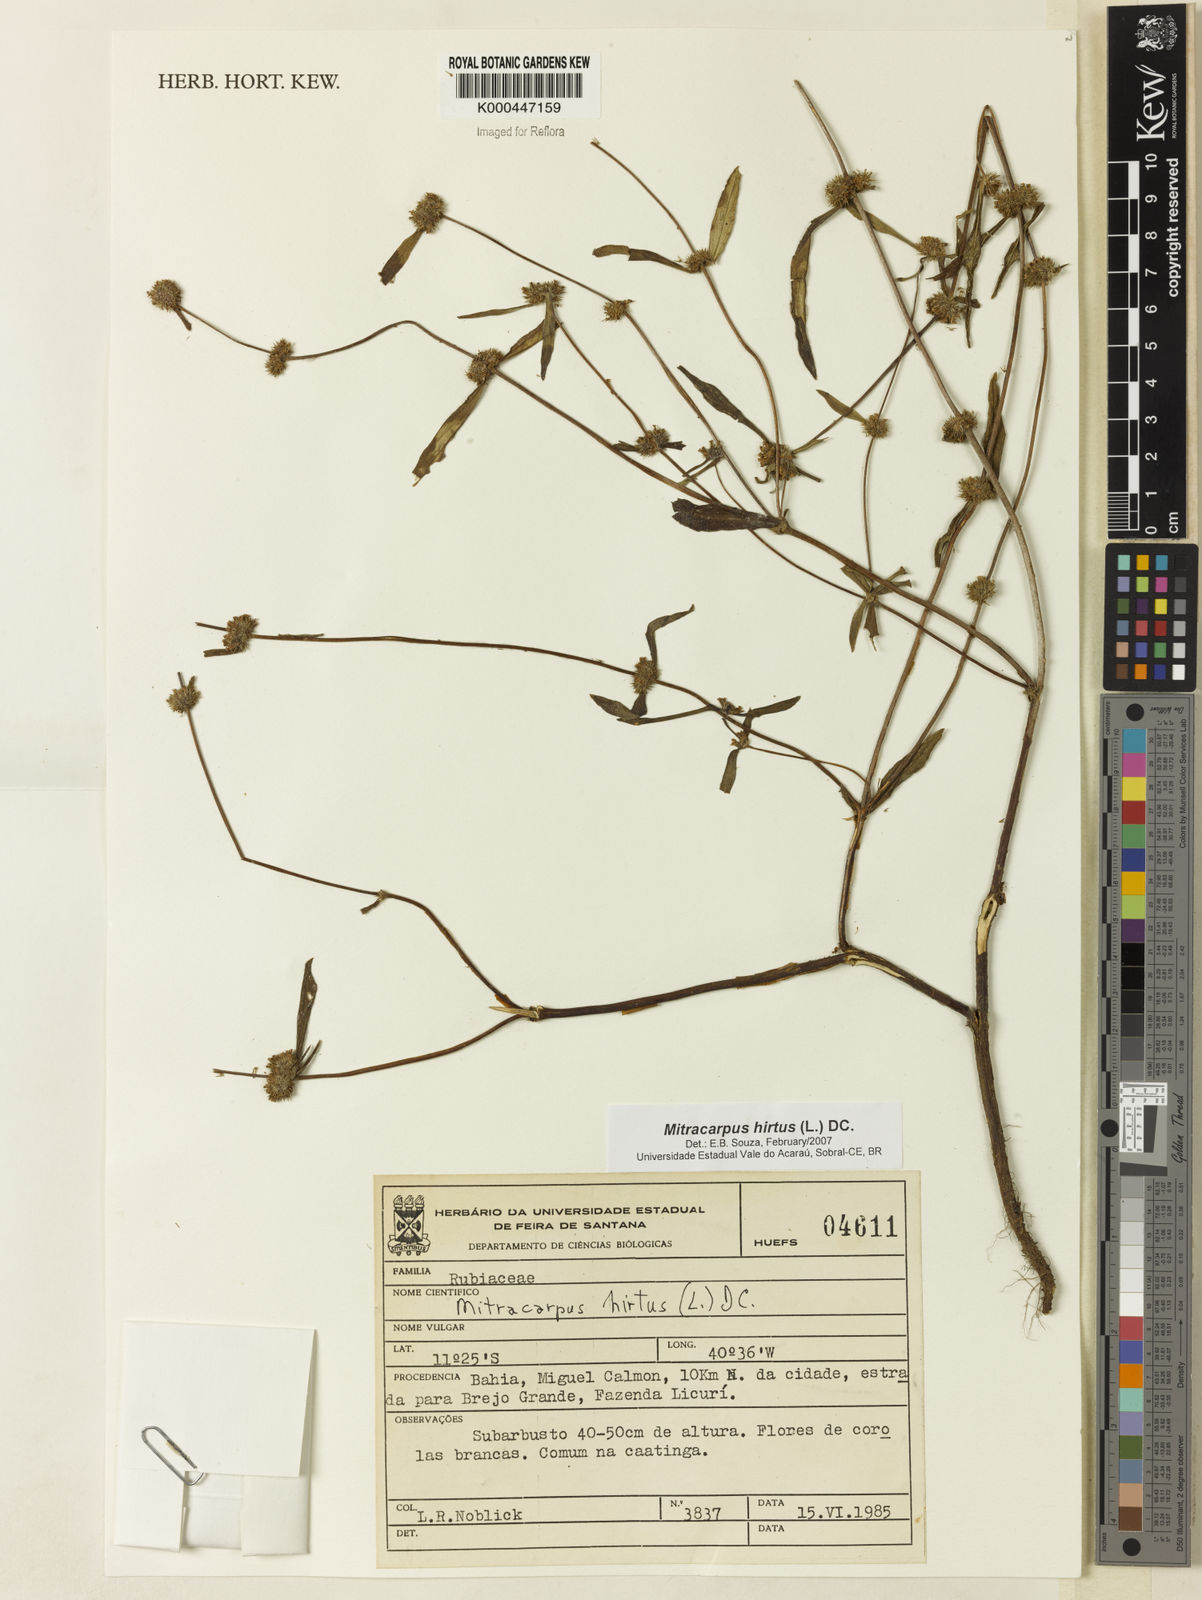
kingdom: Plantae
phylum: Tracheophyta
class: Magnoliopsida
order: Gentianales
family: Rubiaceae
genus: Mitracarpus
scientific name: Mitracarpus hirtus
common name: Tropical girdlepod
